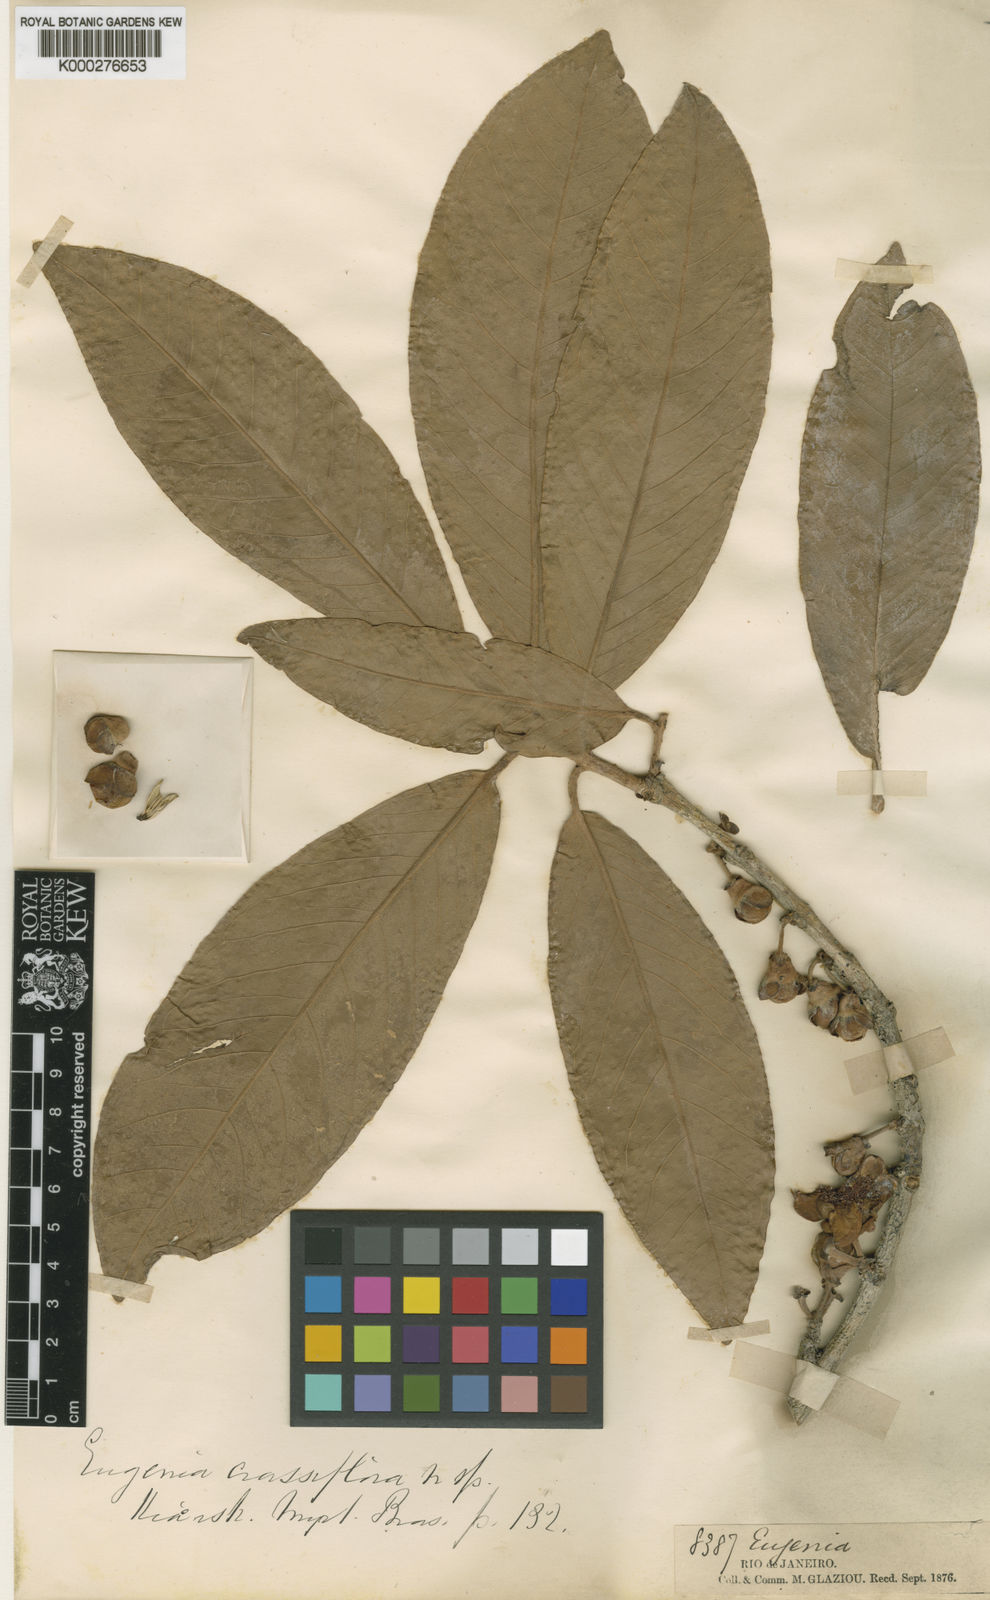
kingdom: Plantae
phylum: Tracheophyta
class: Magnoliopsida
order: Myrtales
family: Myrtaceae
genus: Eugenia
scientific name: Eugenia umbrosa
